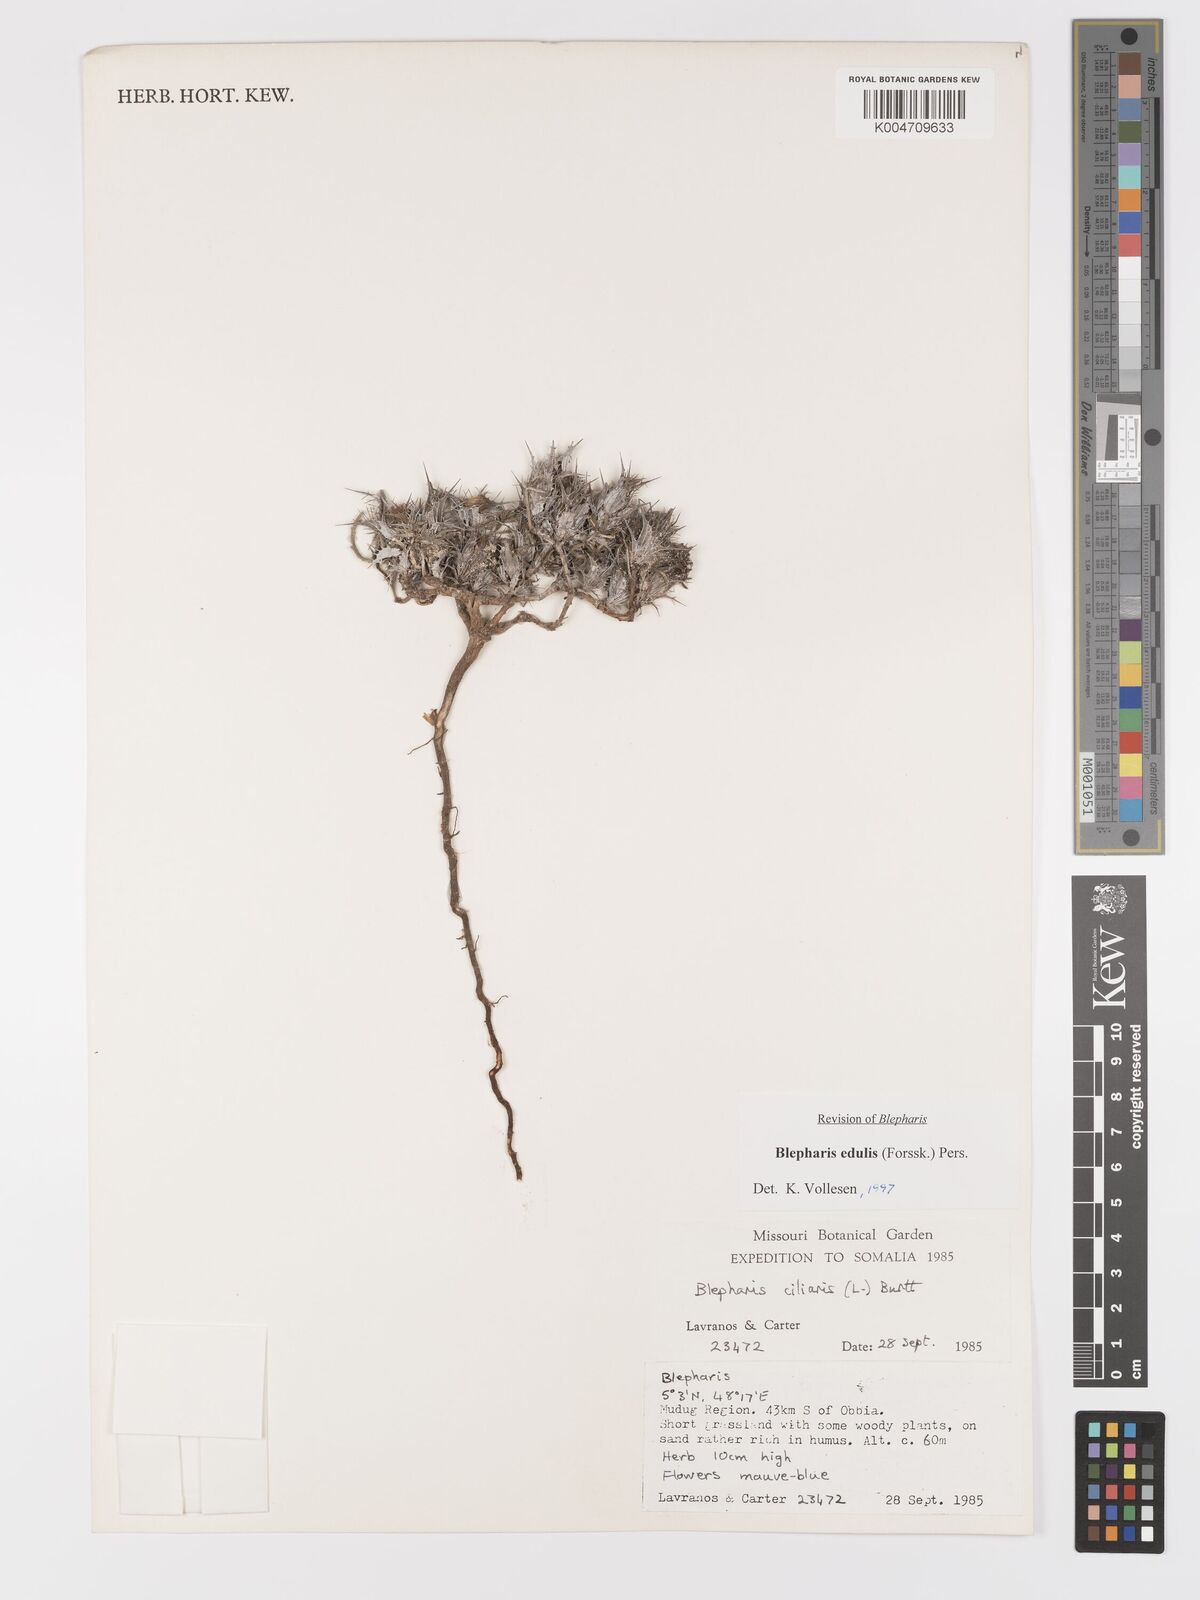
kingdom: Plantae
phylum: Tracheophyta
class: Magnoliopsida
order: Lamiales
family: Acanthaceae
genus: Blepharis
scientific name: Blepharis edulis
